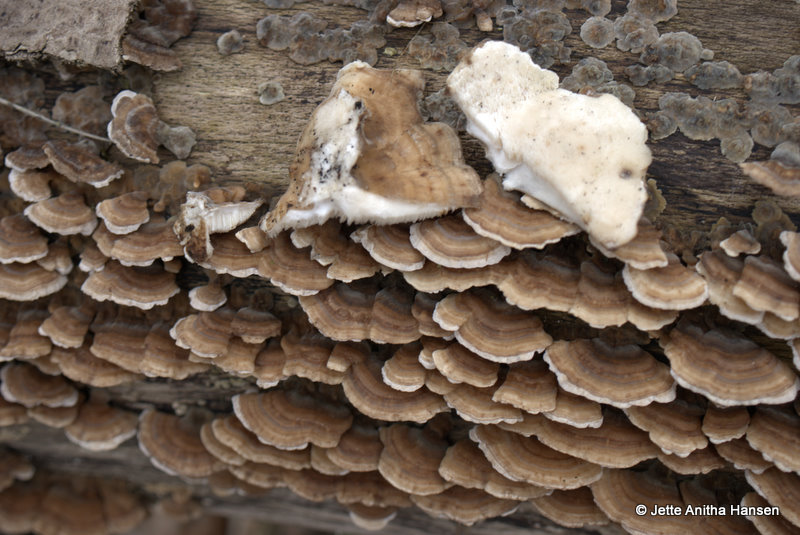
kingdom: Fungi
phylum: Basidiomycota
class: Agaricomycetes
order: Polyporales
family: Polyporaceae
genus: Trametes
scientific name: Trametes versicolor
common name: broget læderporesvamp
